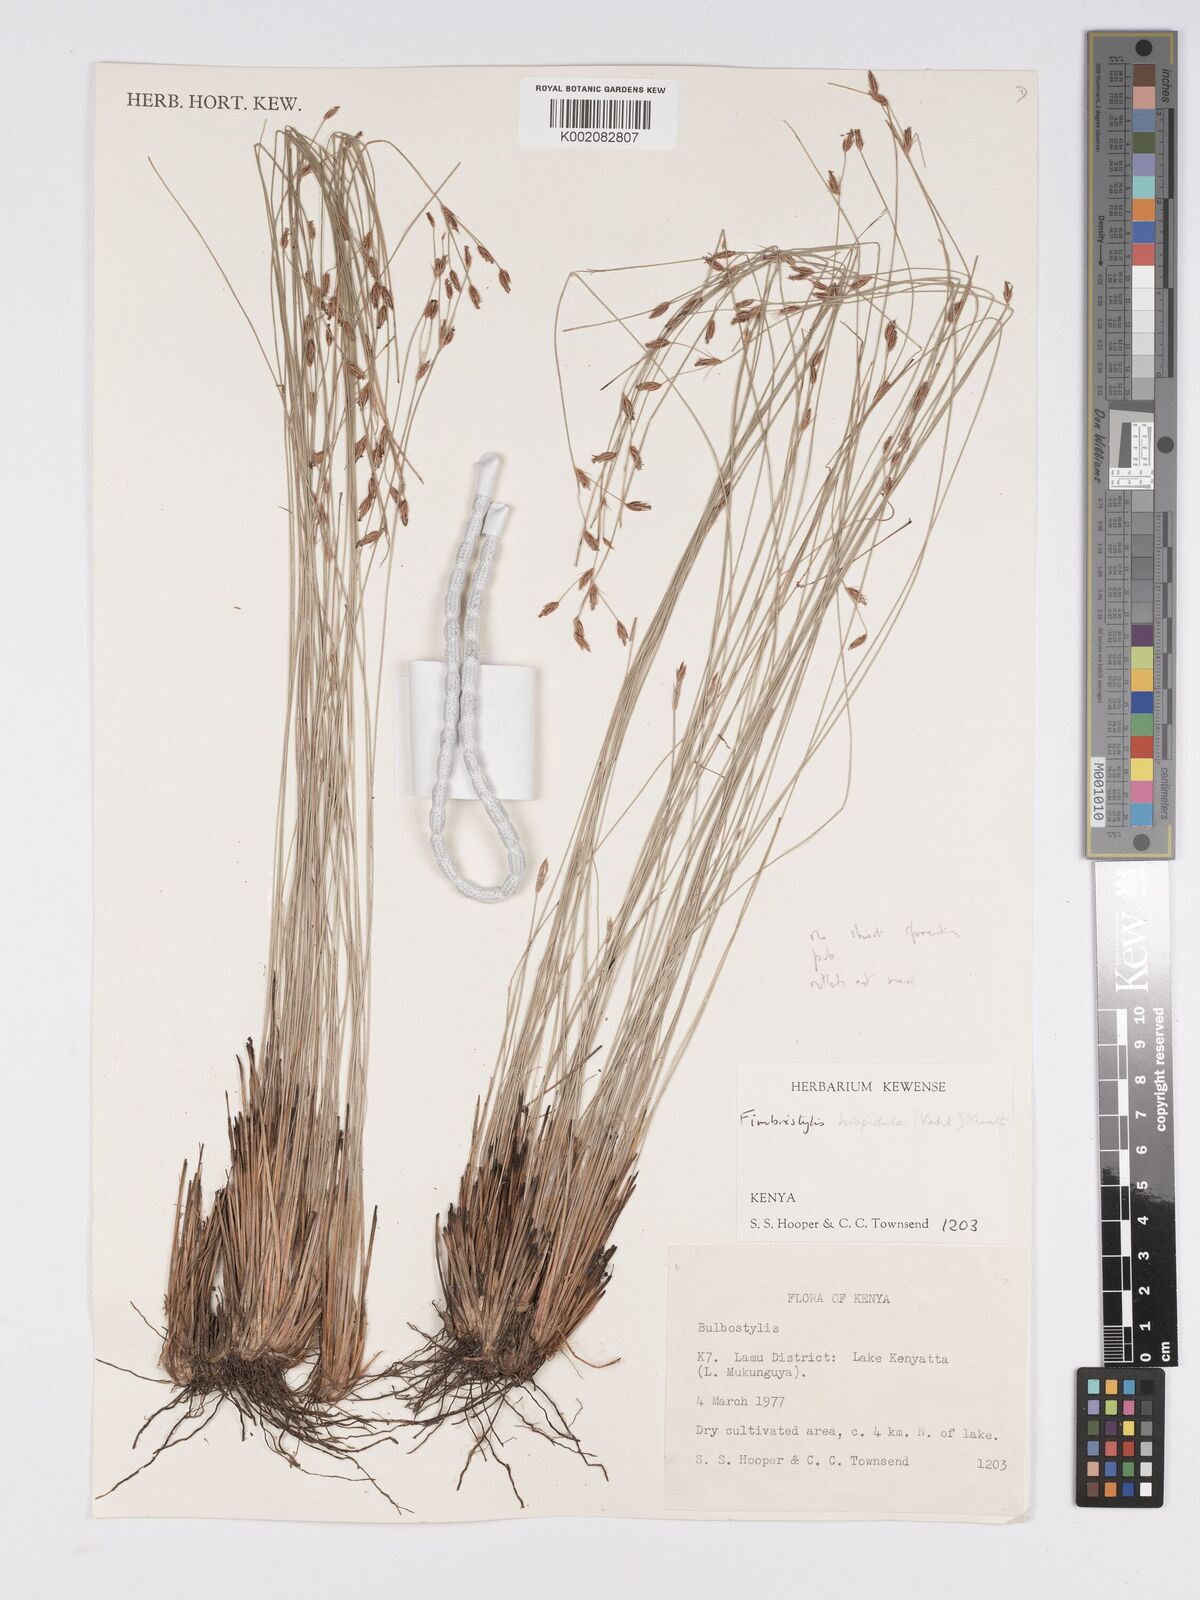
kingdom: Plantae
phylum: Tracheophyta
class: Liliopsida
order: Poales
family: Cyperaceae
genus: Bulbostylis
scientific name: Bulbostylis hispidula
